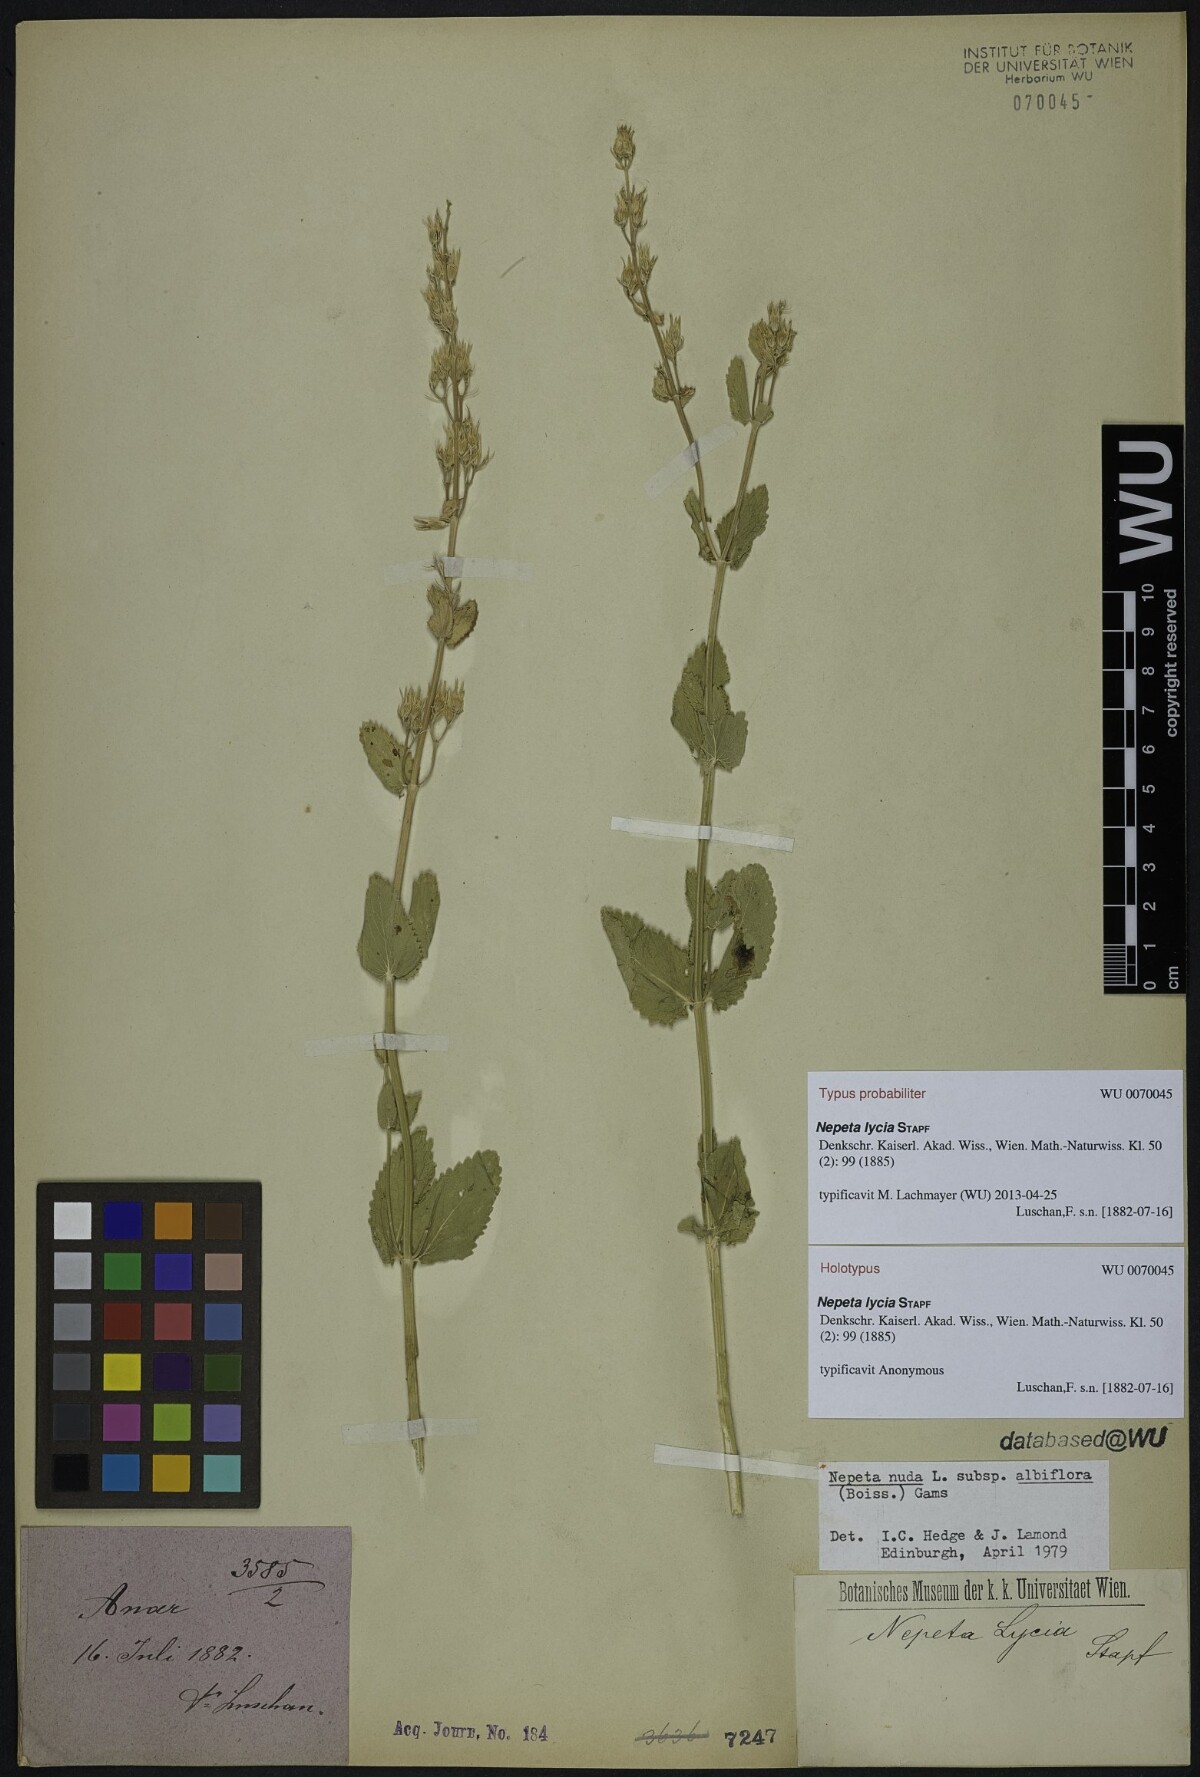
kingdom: Plantae
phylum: Tracheophyta
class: Magnoliopsida
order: Lamiales
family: Lamiaceae
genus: Nepeta
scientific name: Nepeta lycia
